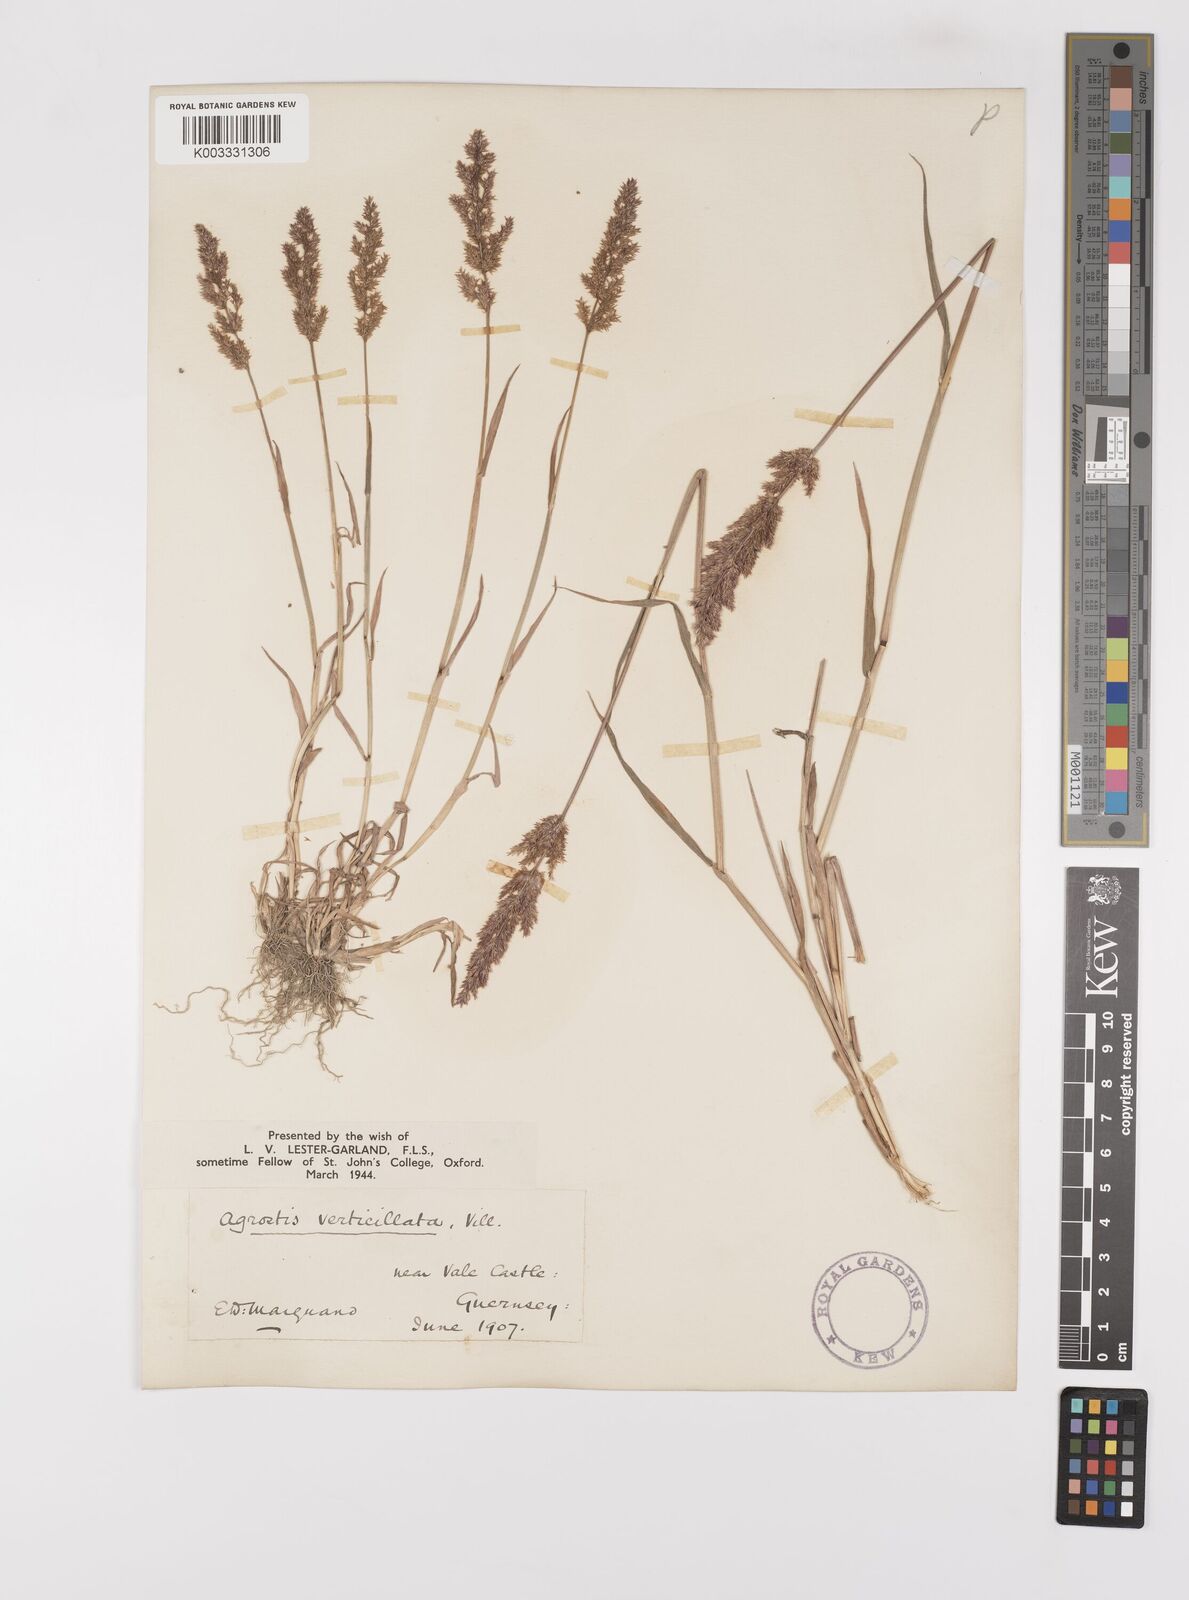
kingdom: Plantae
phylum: Tracheophyta
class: Liliopsida
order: Poales
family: Poaceae
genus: Polypogon
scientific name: Polypogon viridis
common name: Water bent
